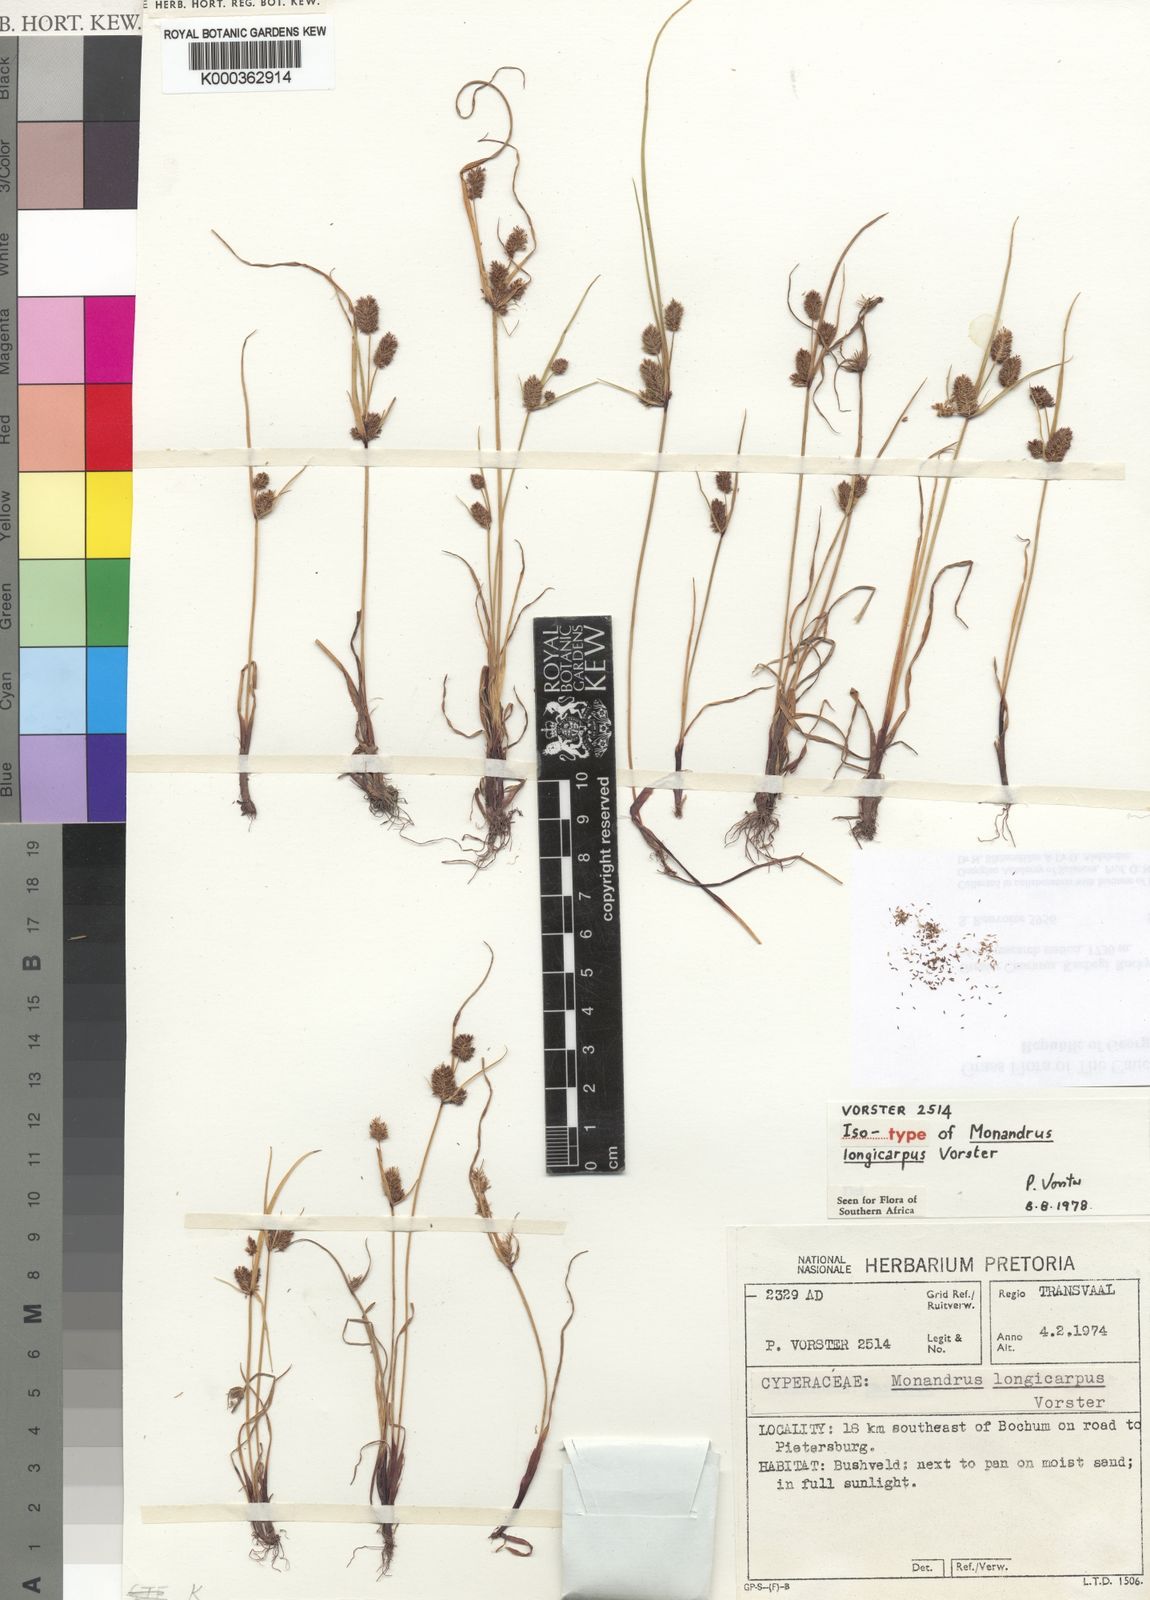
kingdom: Plantae
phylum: Tracheophyta
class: Liliopsida
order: Poales
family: Cyperaceae
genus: Cyperus
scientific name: Cyperus
